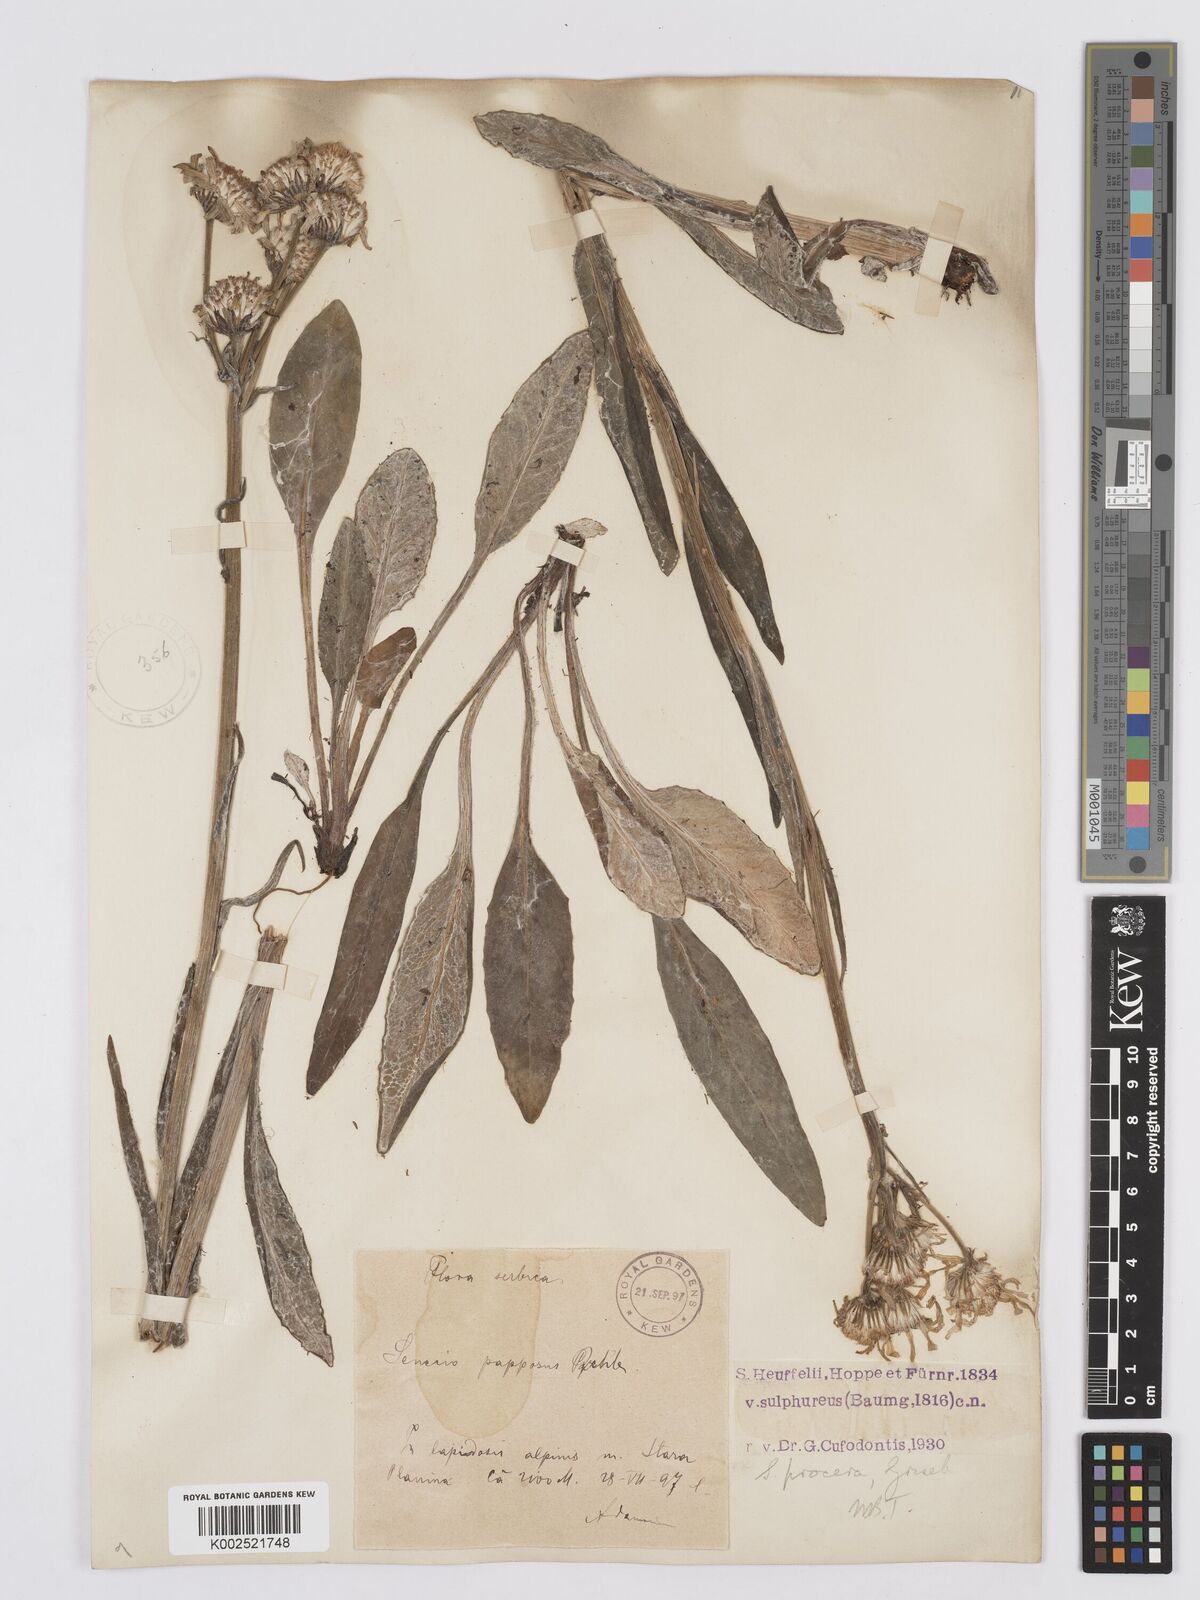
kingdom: Plantae
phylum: Tracheophyta
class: Magnoliopsida
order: Asterales
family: Asteraceae
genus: Tephroseris
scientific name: Tephroseris papposa
